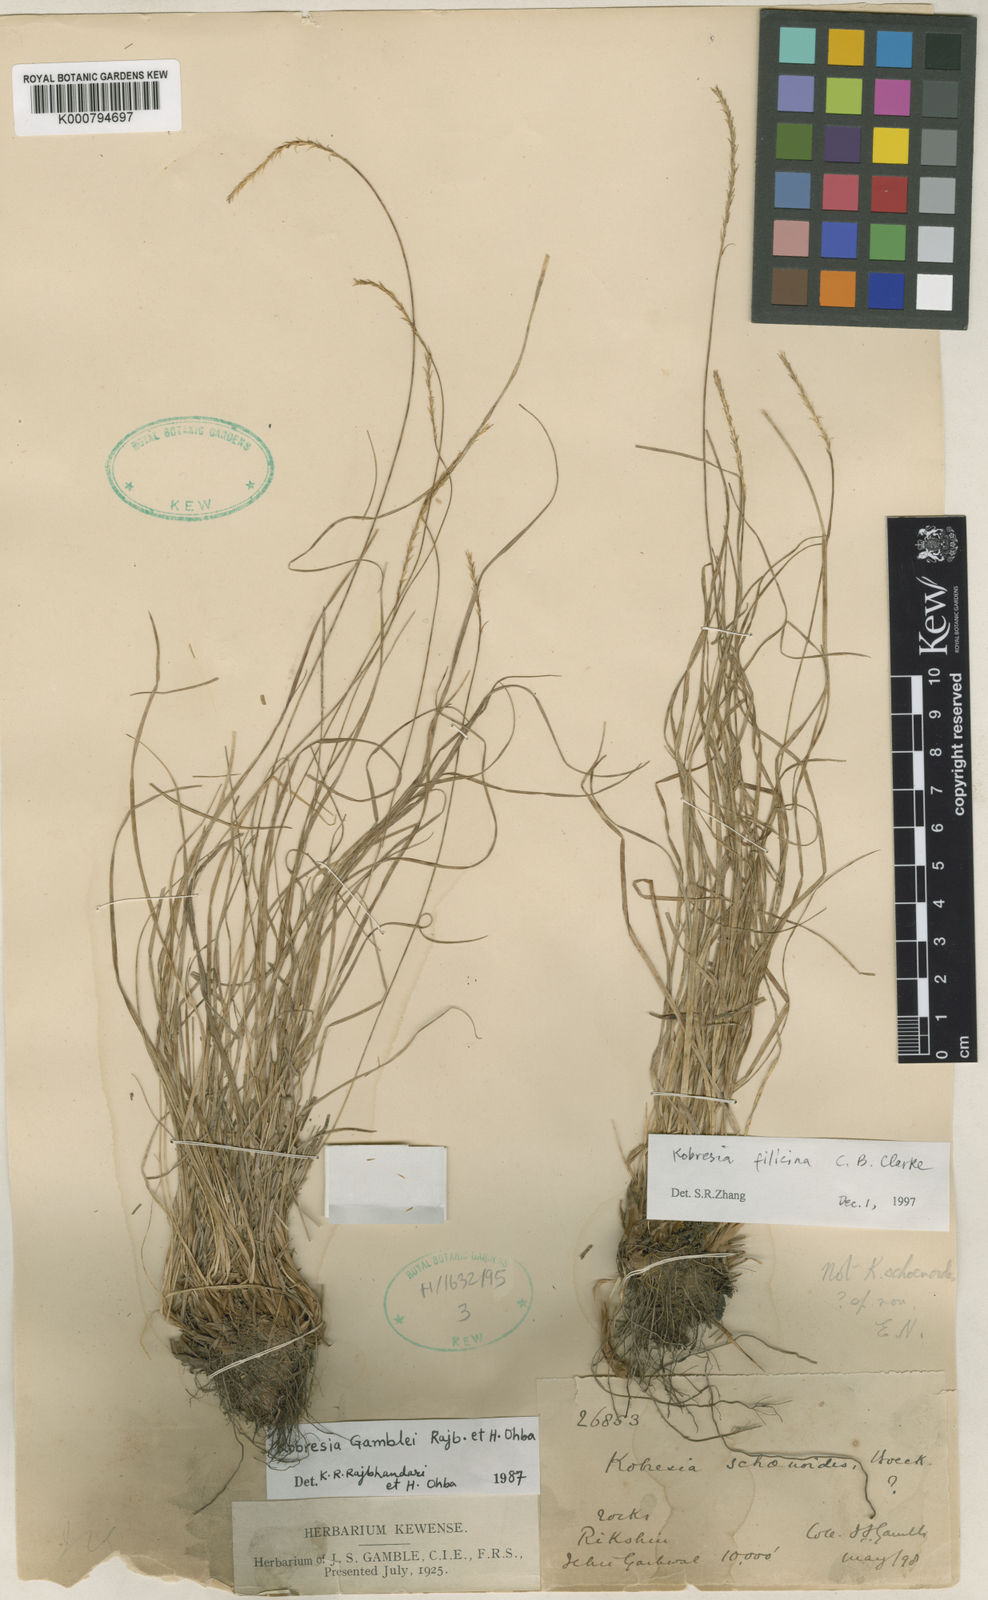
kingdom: Plantae
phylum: Tracheophyta
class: Liliopsida
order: Poales
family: Cyperaceae
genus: Carex
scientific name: Carex
